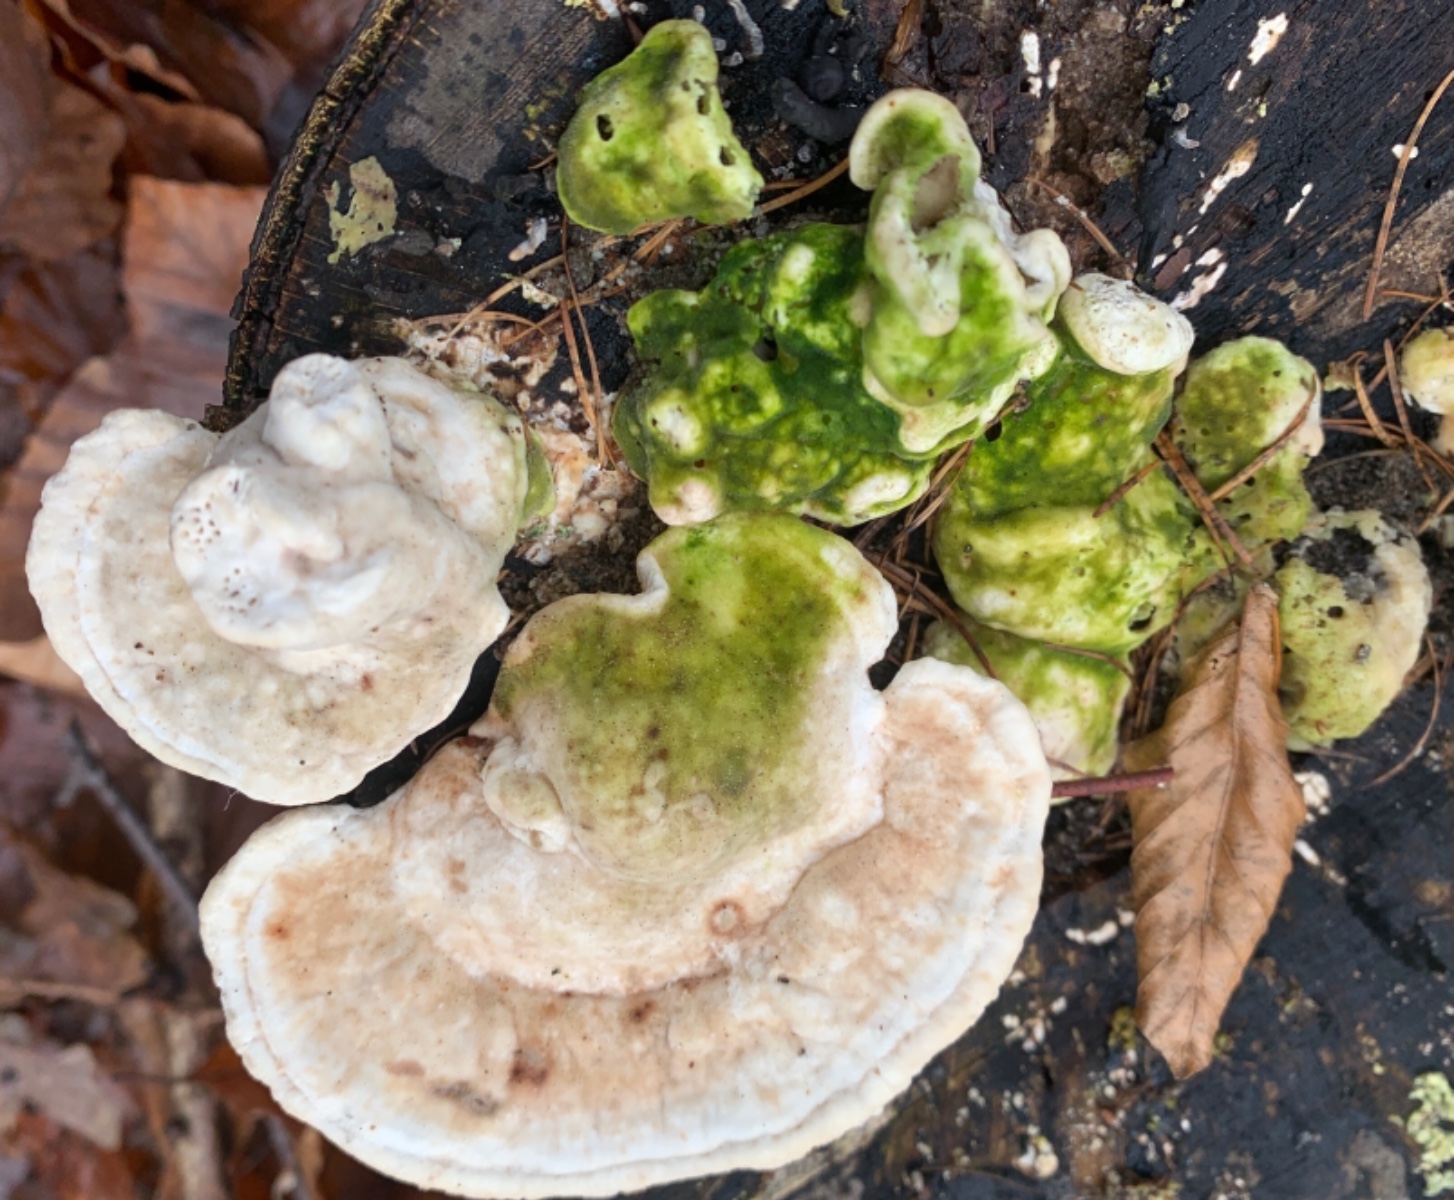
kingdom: Fungi
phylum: Basidiomycota
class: Agaricomycetes
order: Polyporales
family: Polyporaceae
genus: Trametes
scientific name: Trametes gibbosa
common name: puklet læderporesvamp
